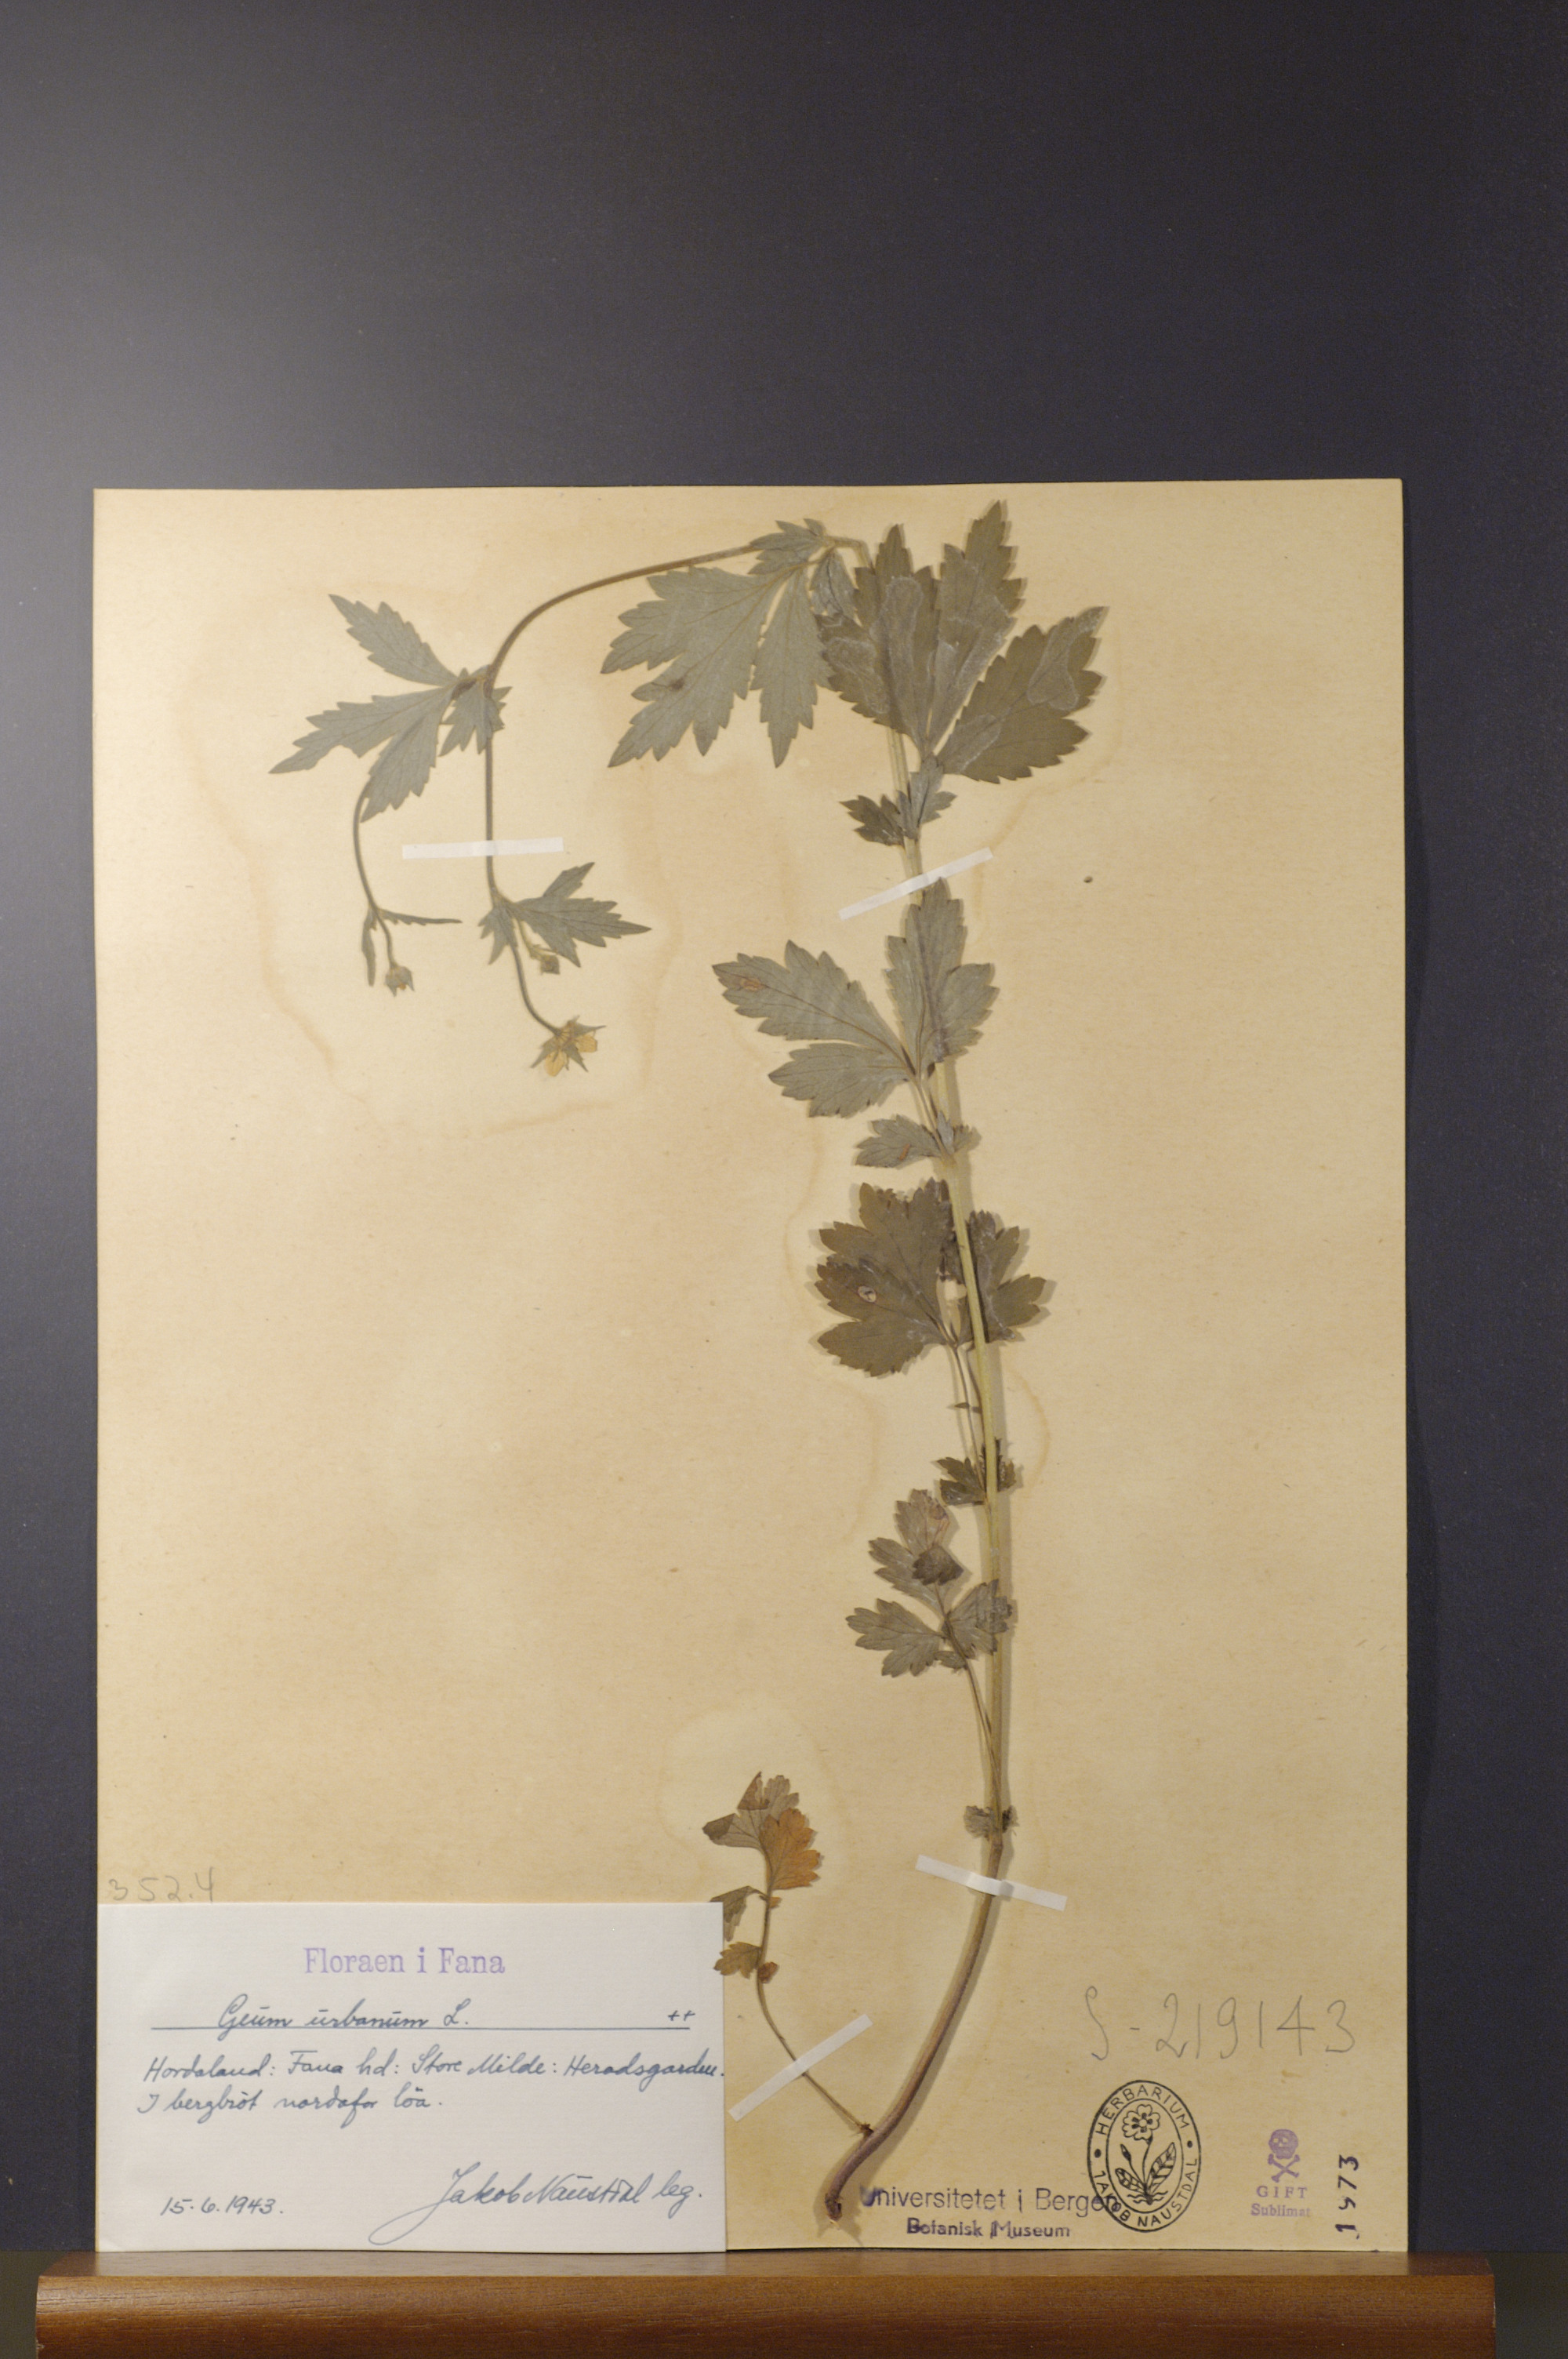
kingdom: Plantae
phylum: Tracheophyta
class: Magnoliopsida
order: Rosales
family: Rosaceae
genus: Geum
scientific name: Geum urbanum
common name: Wood avens
